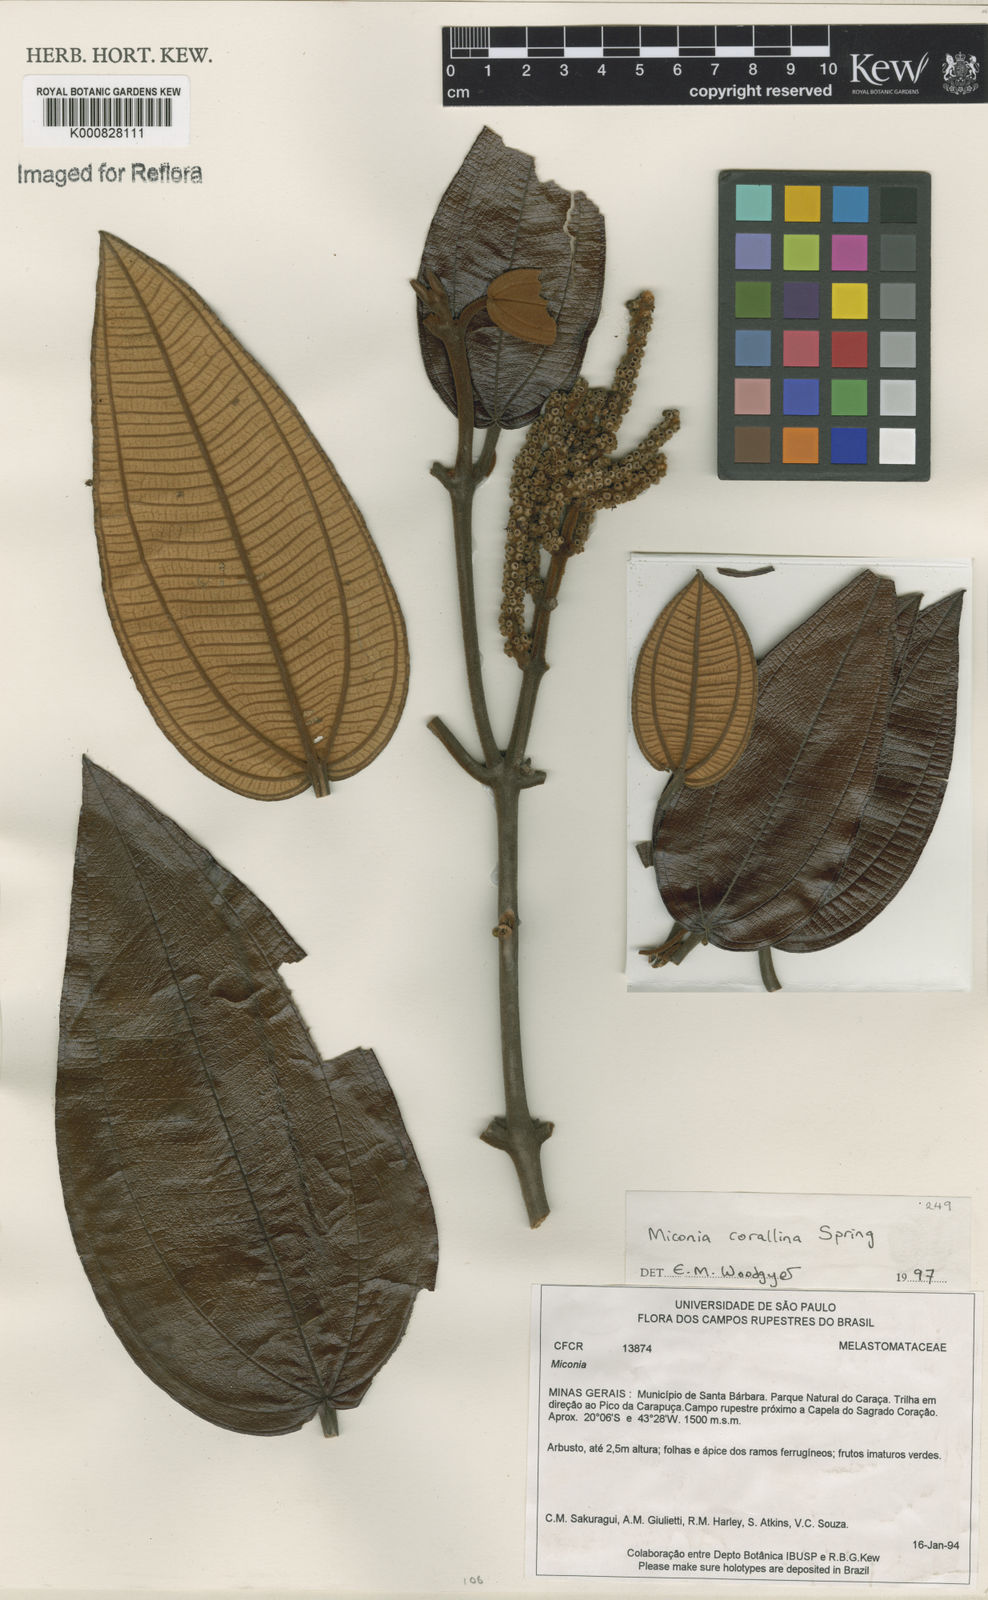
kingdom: Plantae
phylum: Tracheophyta
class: Magnoliopsida
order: Myrtales
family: Melastomataceae
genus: Miconia
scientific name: Miconia
